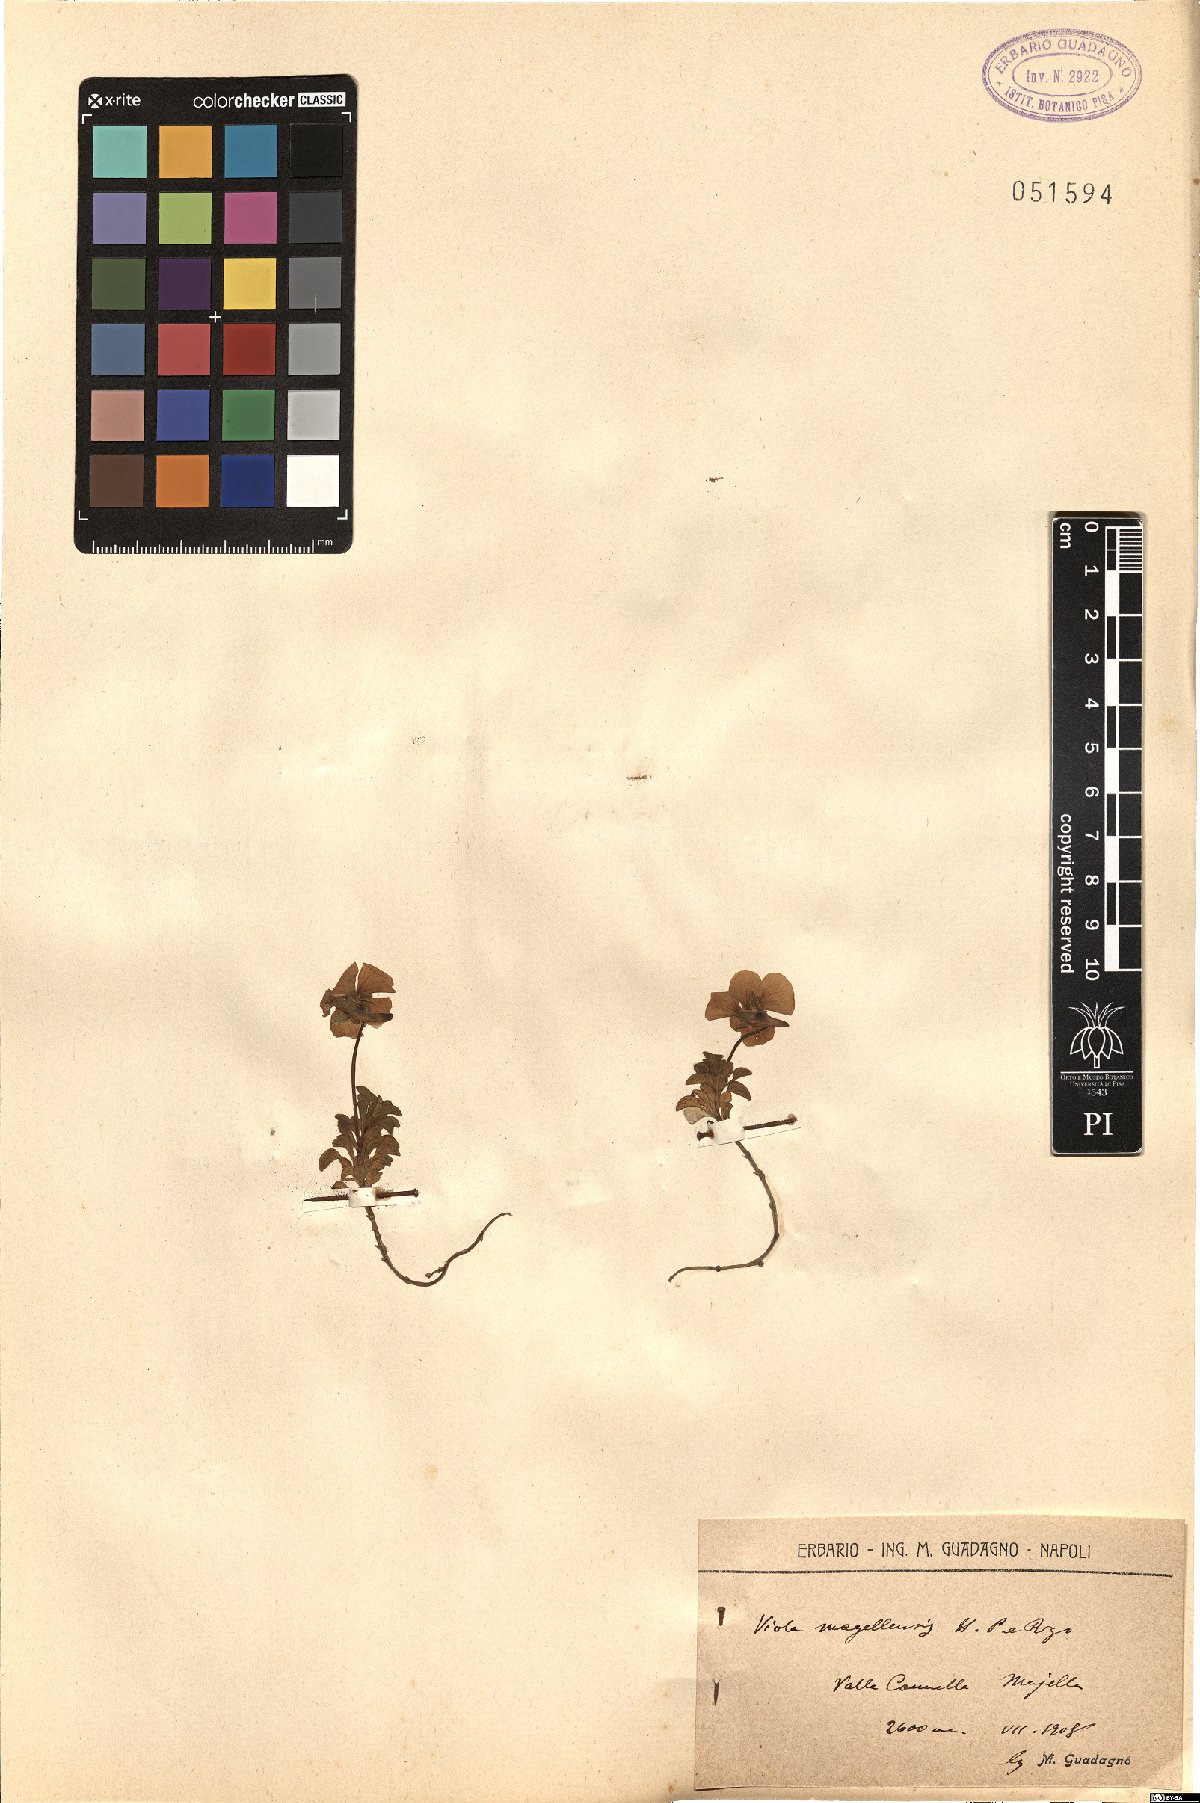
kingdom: Plantae
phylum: Tracheophyta
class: Magnoliopsida
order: Malpighiales
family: Violaceae
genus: Viola
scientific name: Viola magellensis
